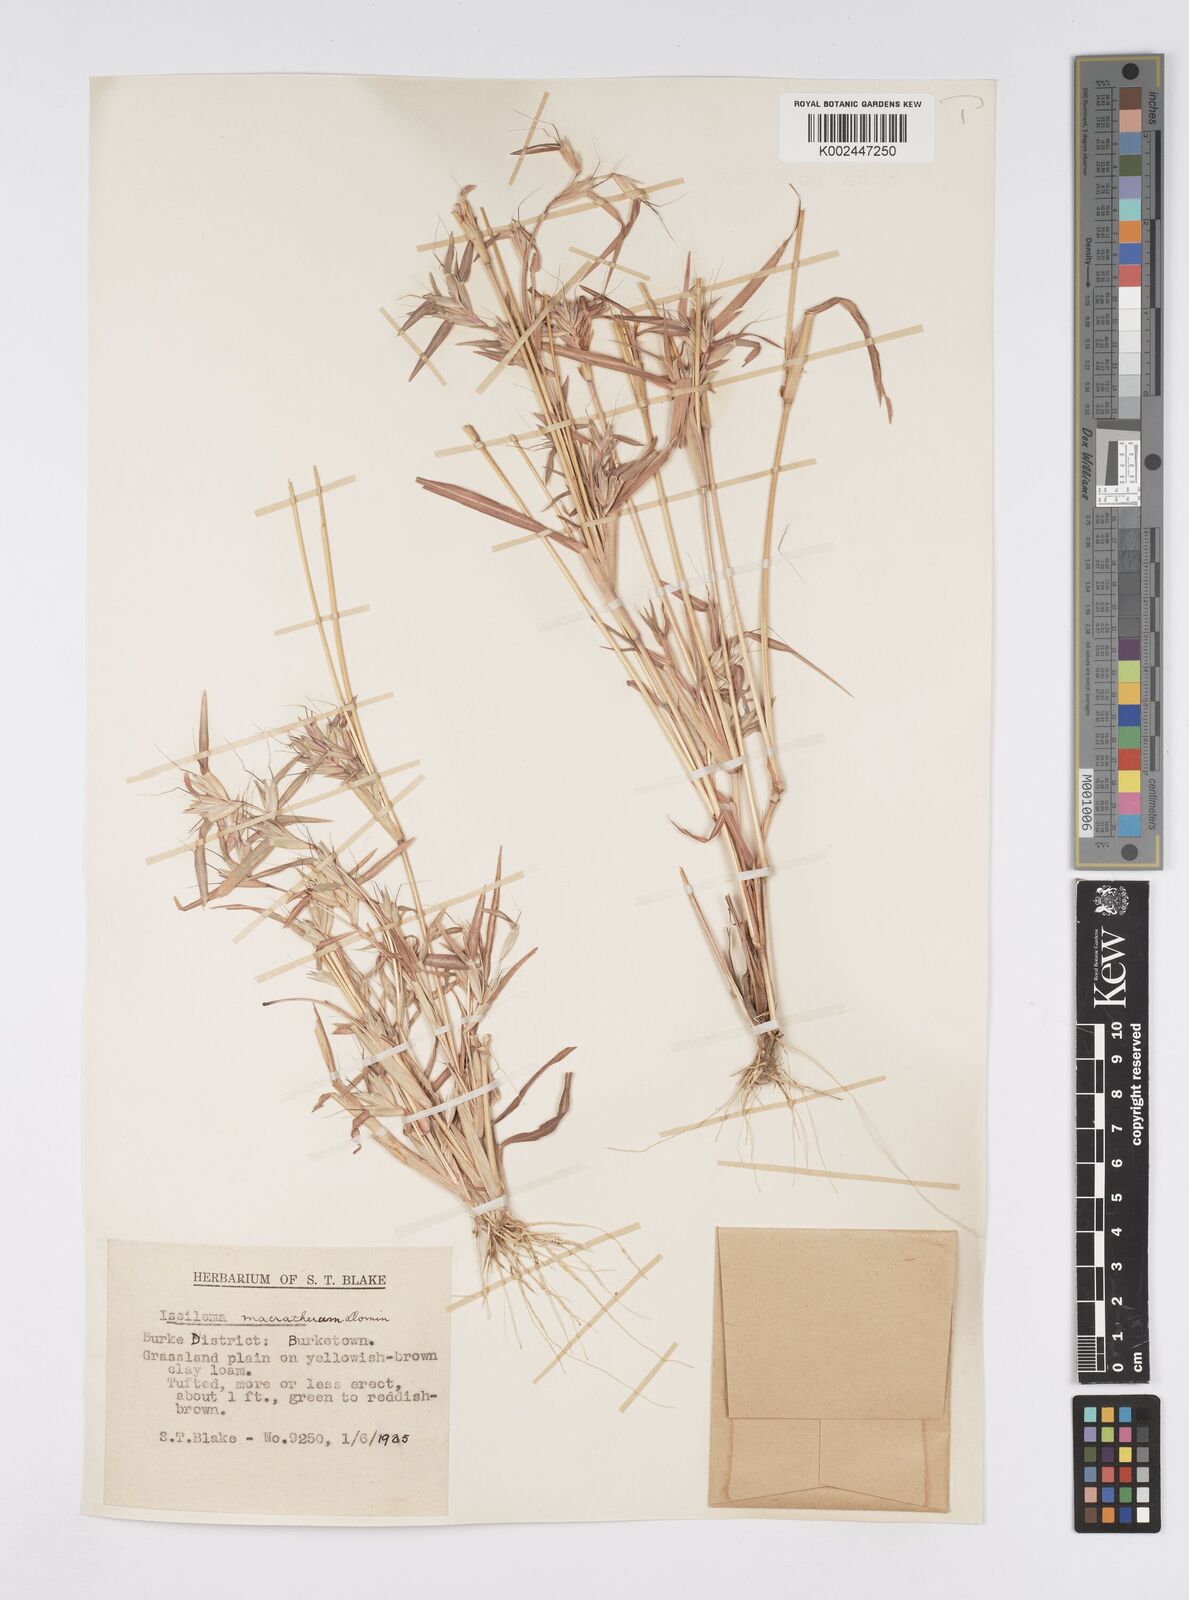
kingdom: Plantae
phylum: Tracheophyta
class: Liliopsida
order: Poales
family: Poaceae
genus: Iseilema
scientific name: Iseilema macratherum
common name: Bull flinders grass
